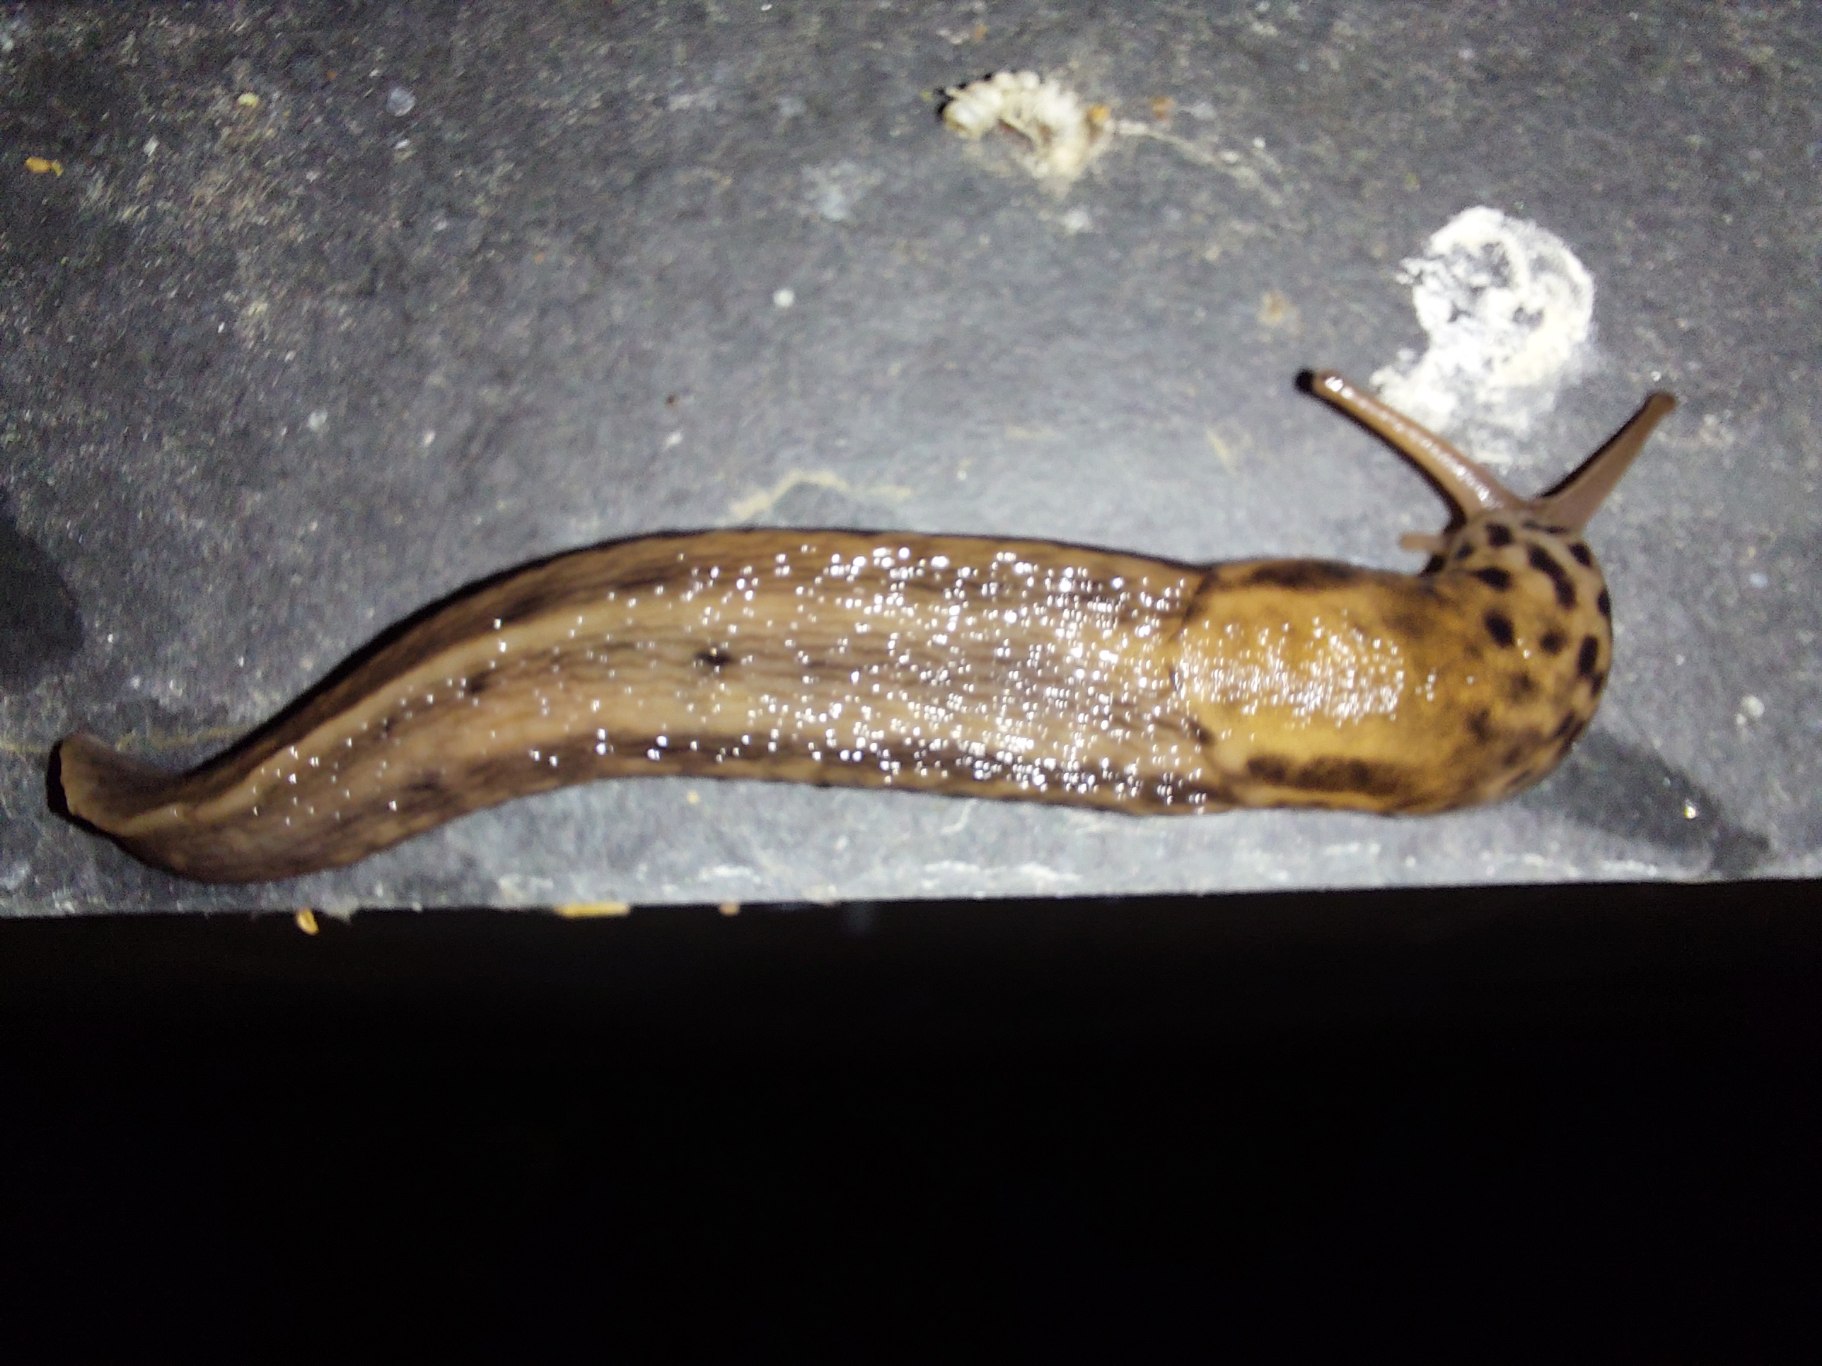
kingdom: Animalia
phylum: Mollusca
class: Gastropoda
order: Stylommatophora
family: Limacidae
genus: Limax
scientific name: Limax maximus
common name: Pantersnegl
